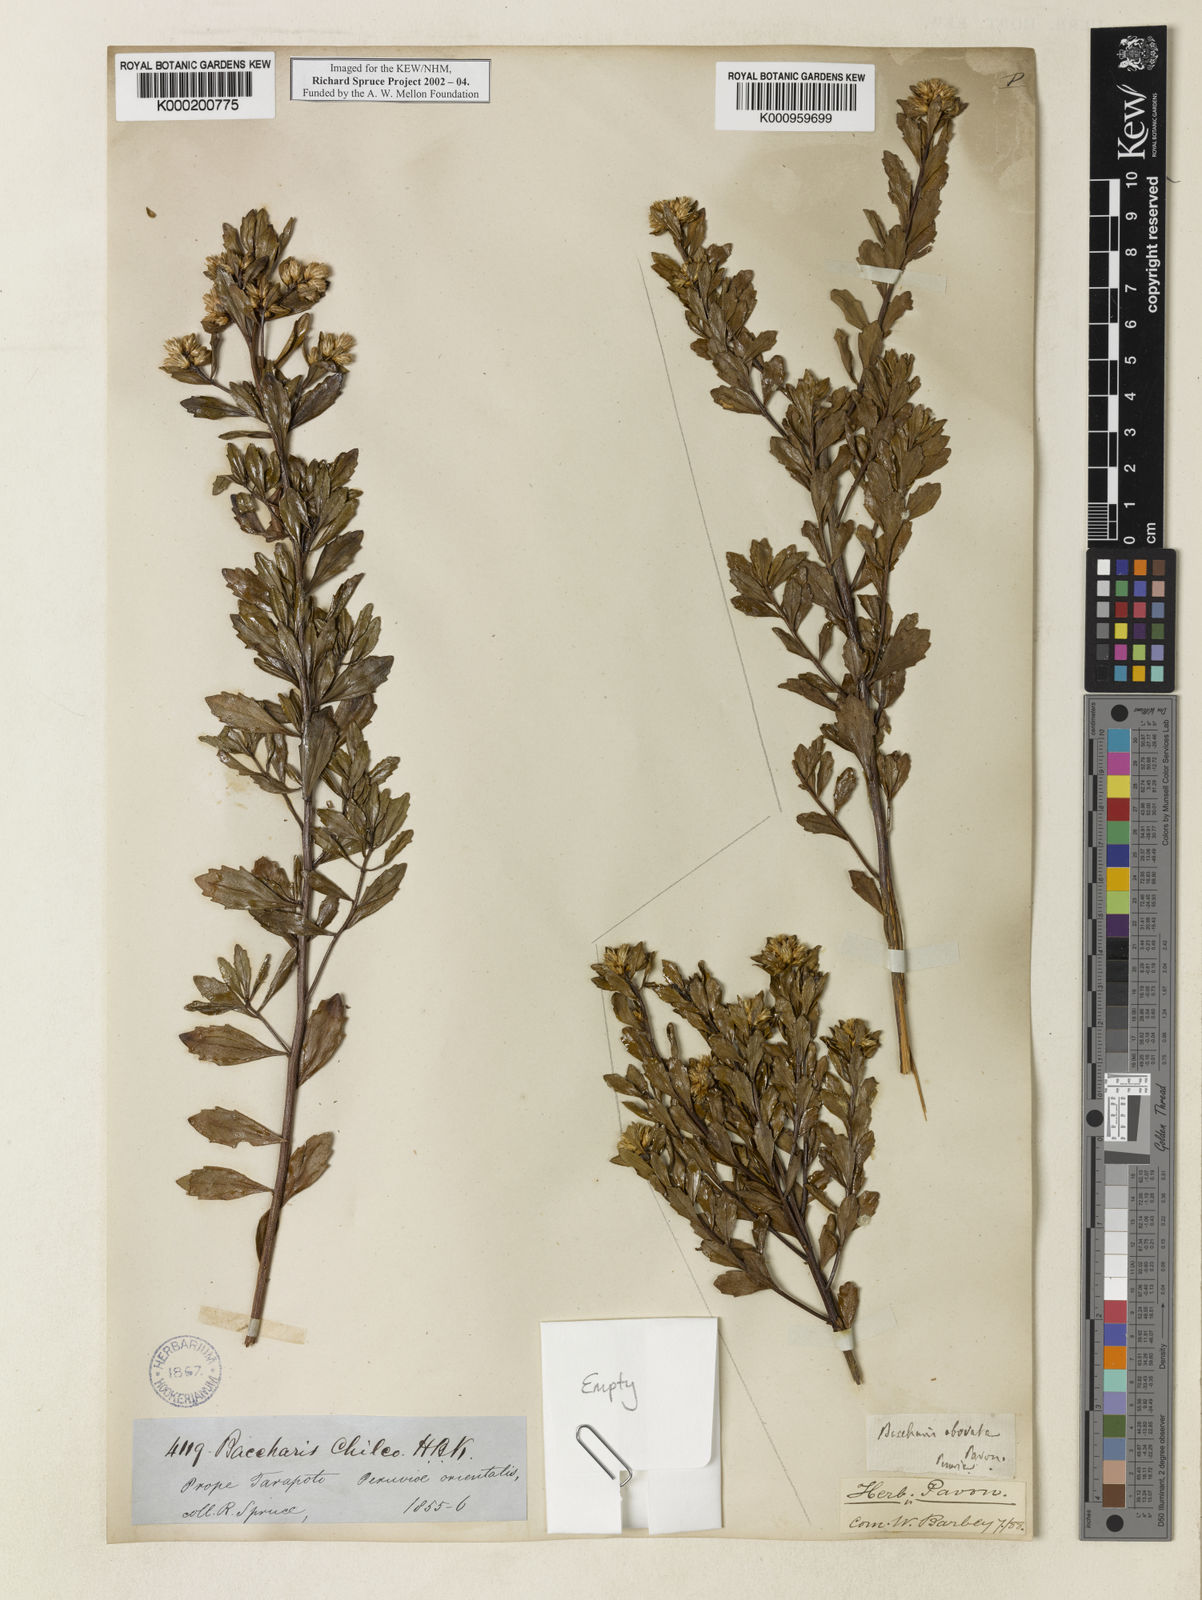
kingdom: Plantae
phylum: Tracheophyta
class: Magnoliopsida
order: Asterales
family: Asteraceae
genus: Baccharis
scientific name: Baccharis linearifolia
